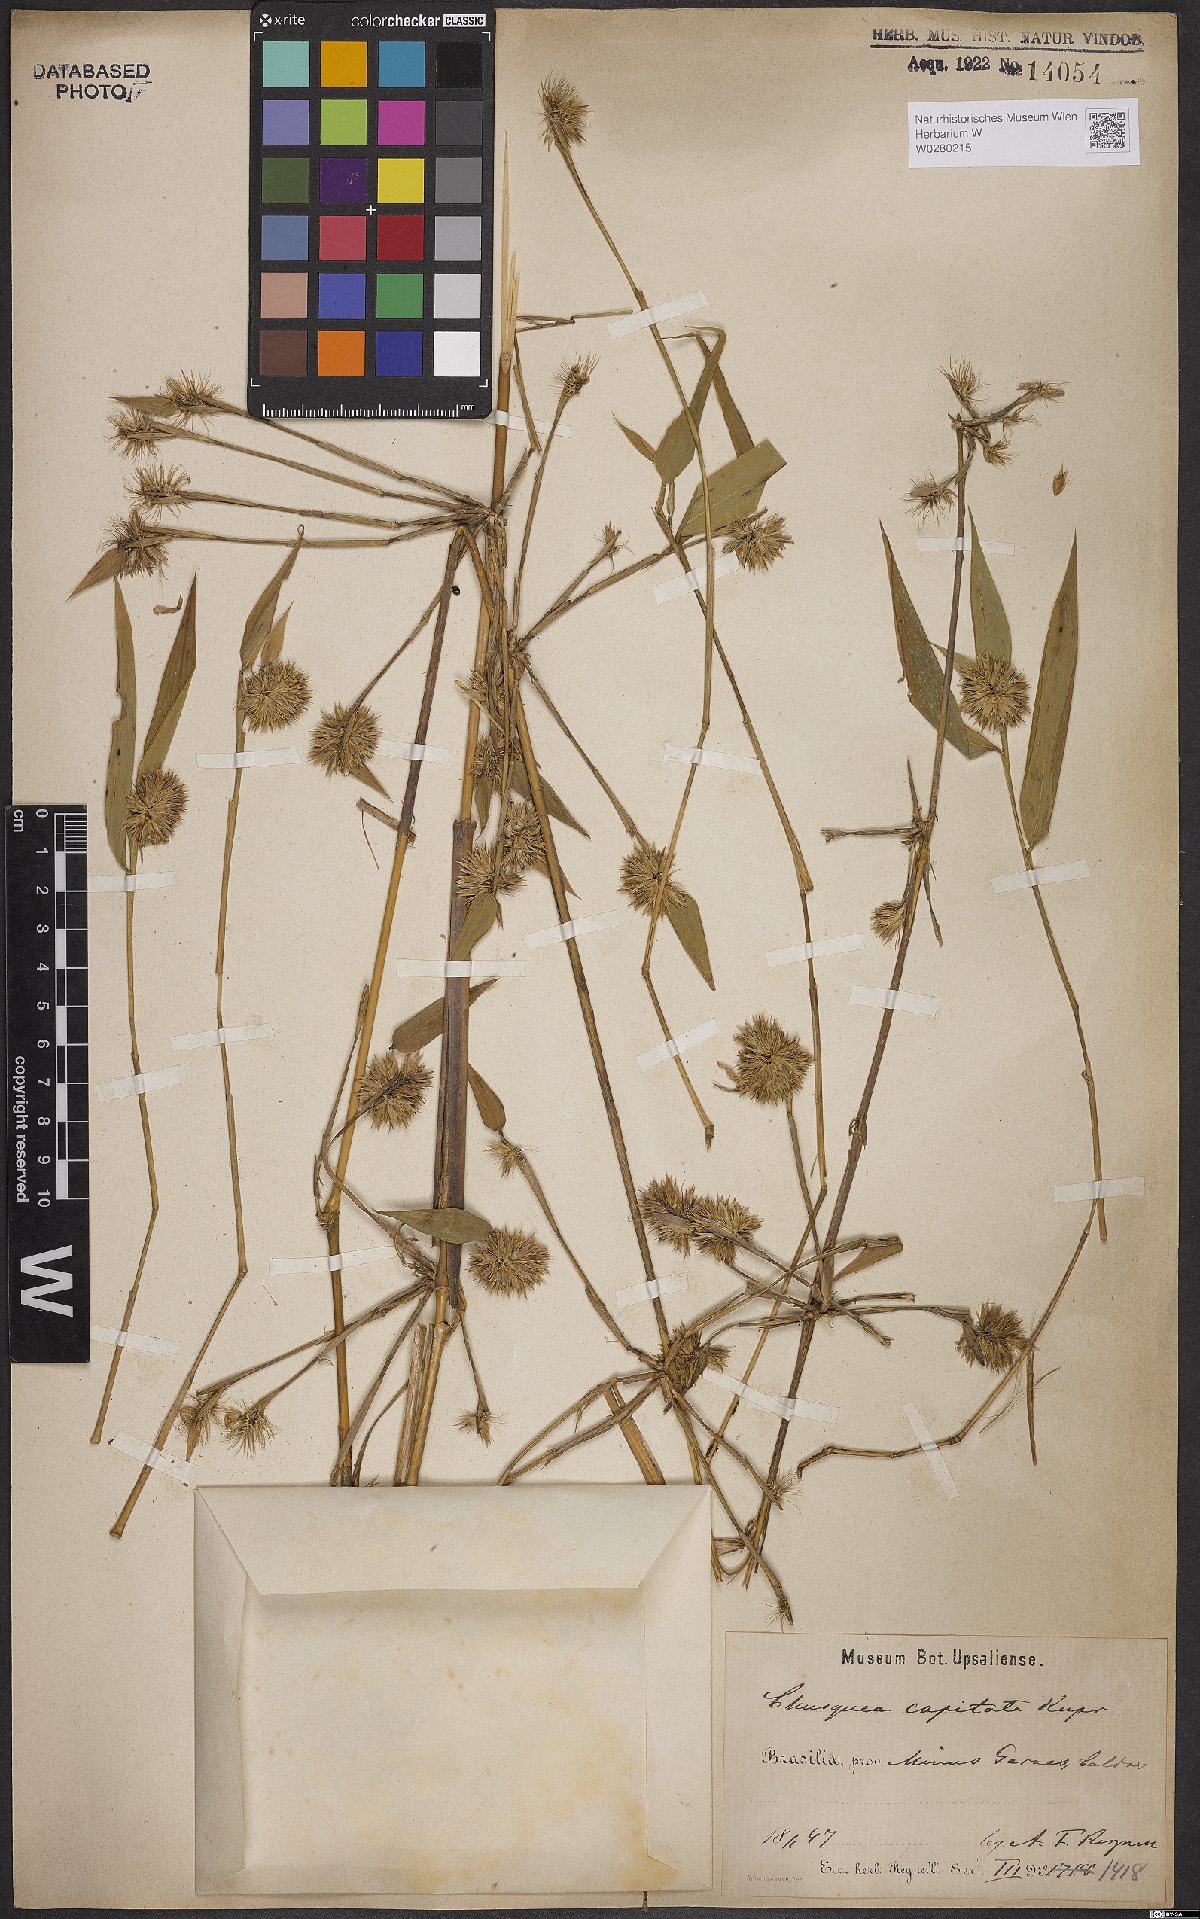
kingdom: Plantae
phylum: Tracheophyta
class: Liliopsida
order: Poales
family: Poaceae
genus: Chusquea
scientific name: Chusquea capitata
